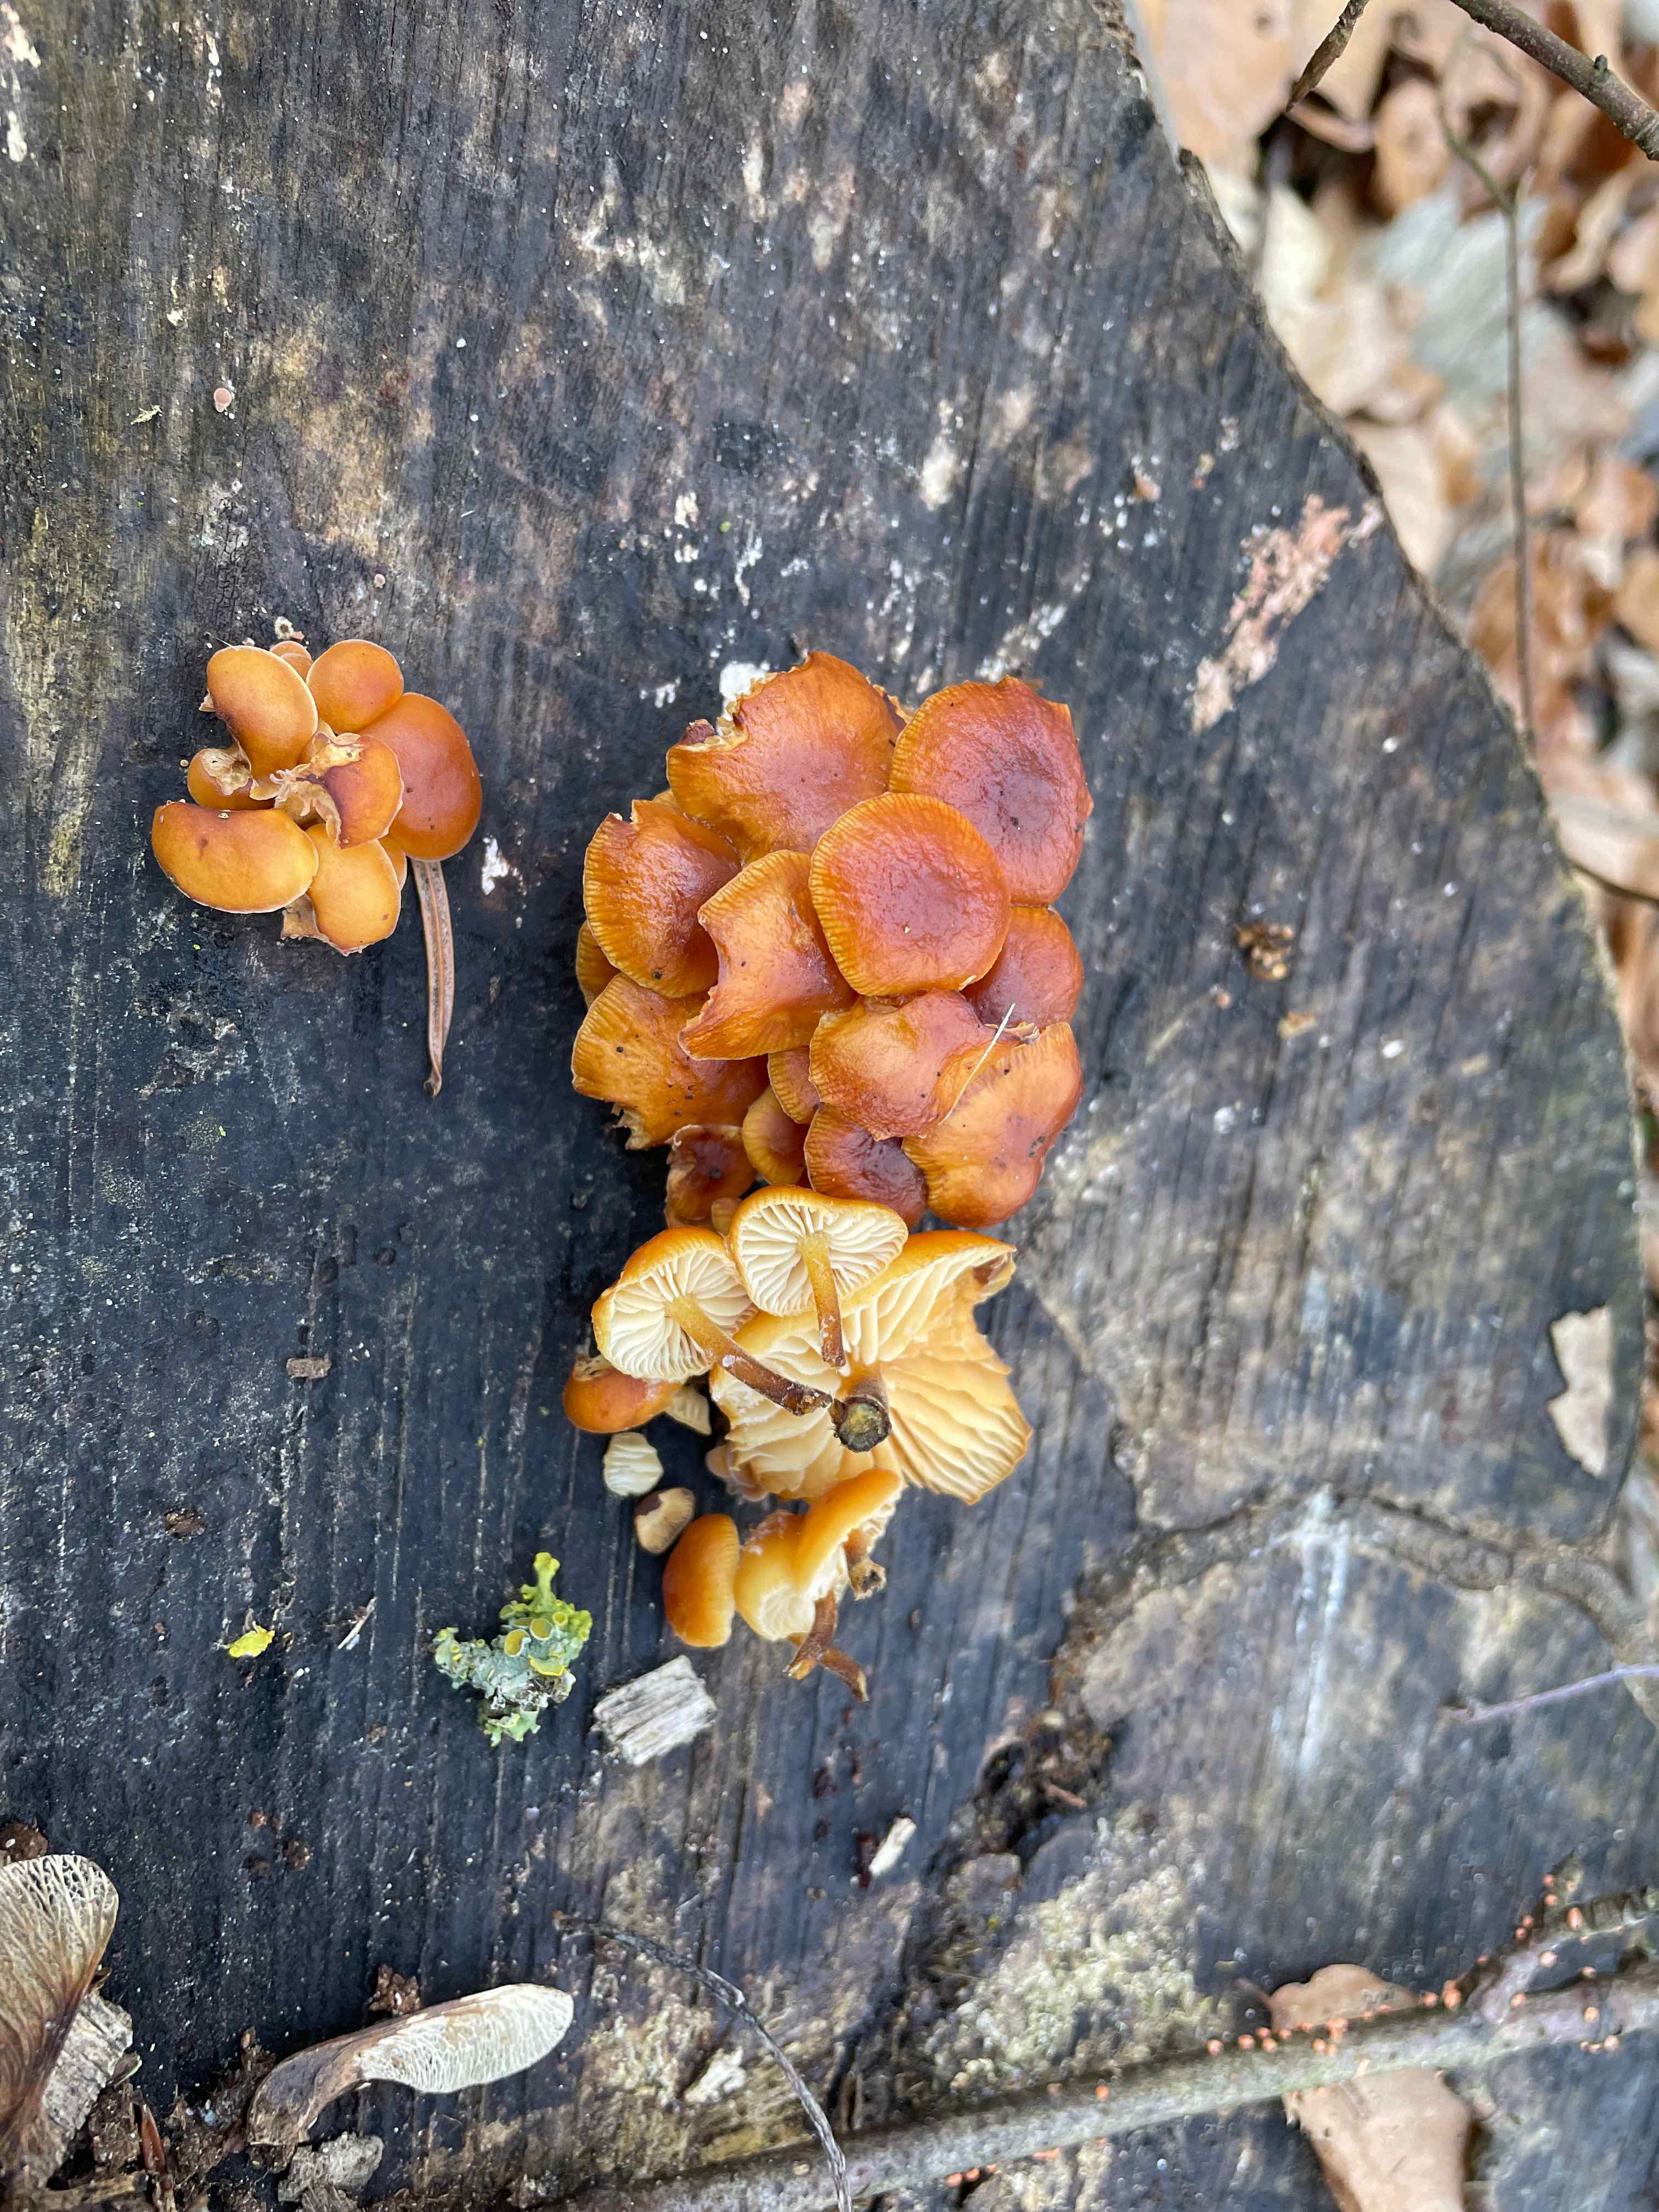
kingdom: Fungi
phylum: Basidiomycota
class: Agaricomycetes
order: Agaricales
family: Physalacriaceae
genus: Flammulina
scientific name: Flammulina velutipes
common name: gul fløjlsfod
